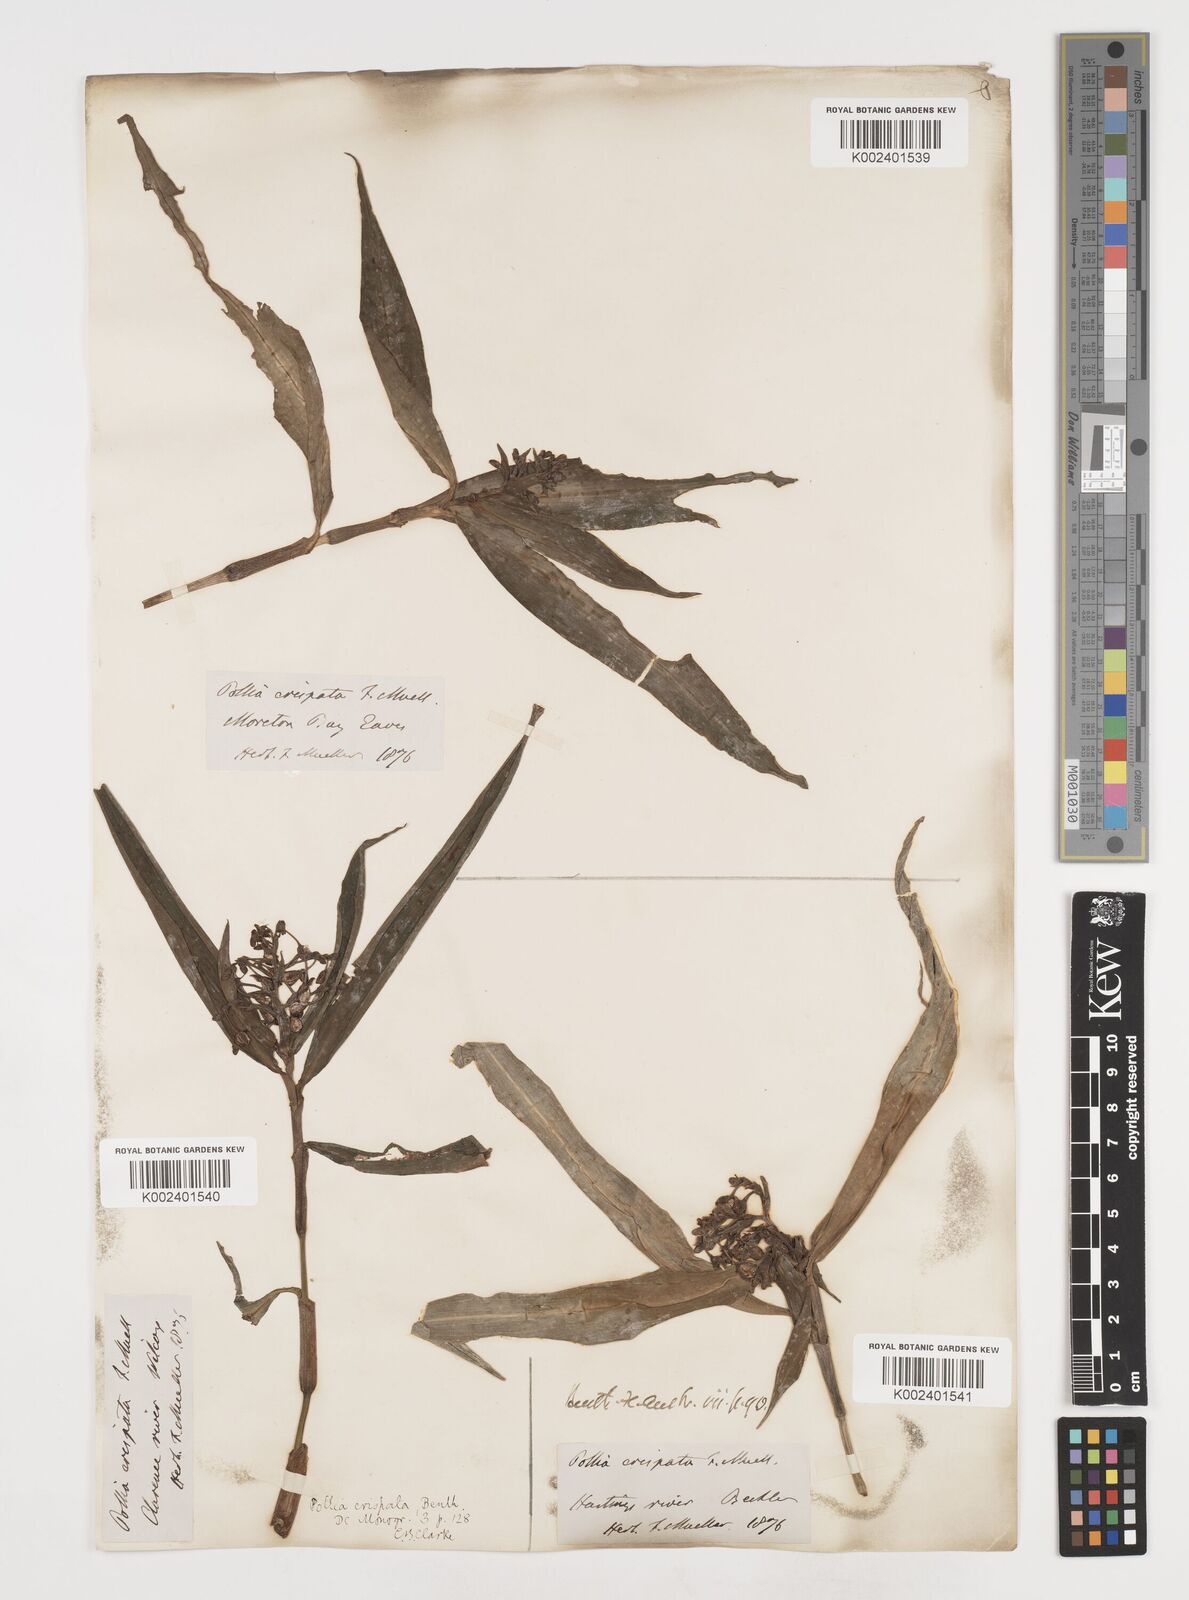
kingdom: Plantae
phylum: Tracheophyta
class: Liliopsida
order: Commelinales
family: Commelinaceae
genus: Pollia
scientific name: Pollia crispata
